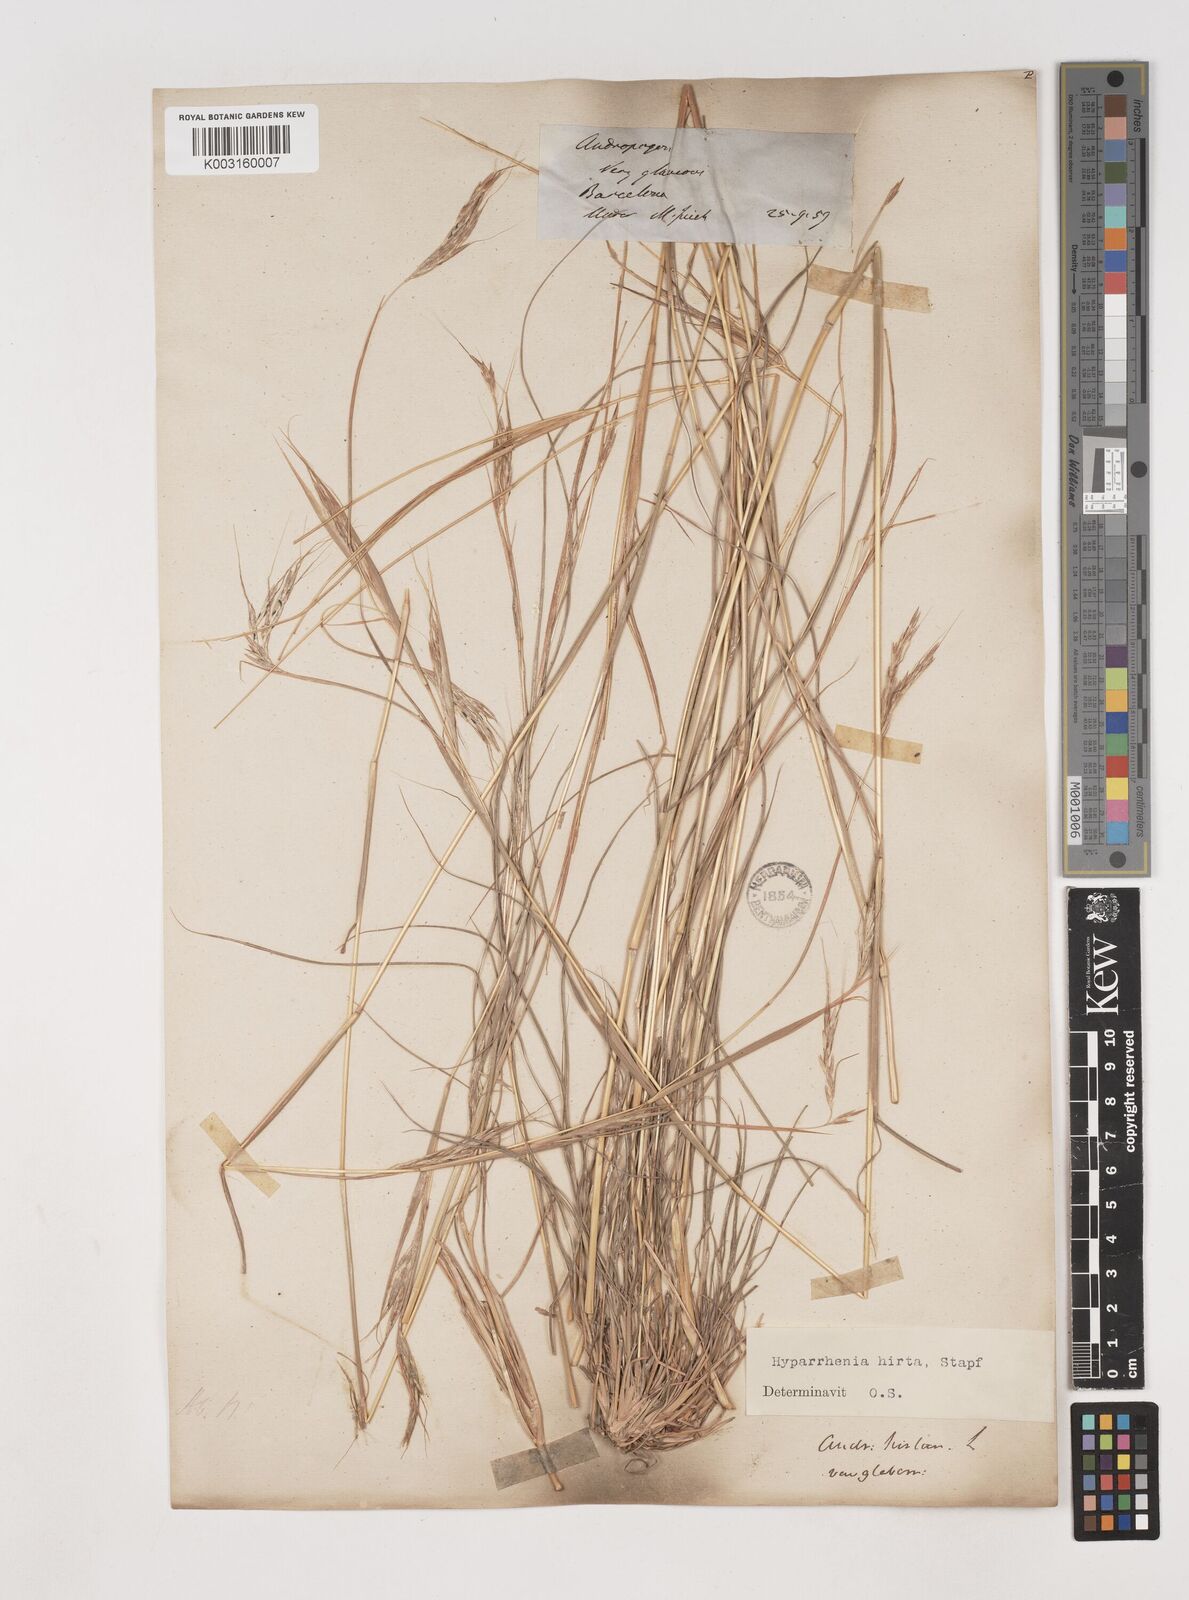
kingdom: Plantae
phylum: Tracheophyta
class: Liliopsida
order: Poales
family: Poaceae
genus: Hyparrhenia
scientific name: Hyparrhenia hirta
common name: Thatching grass
